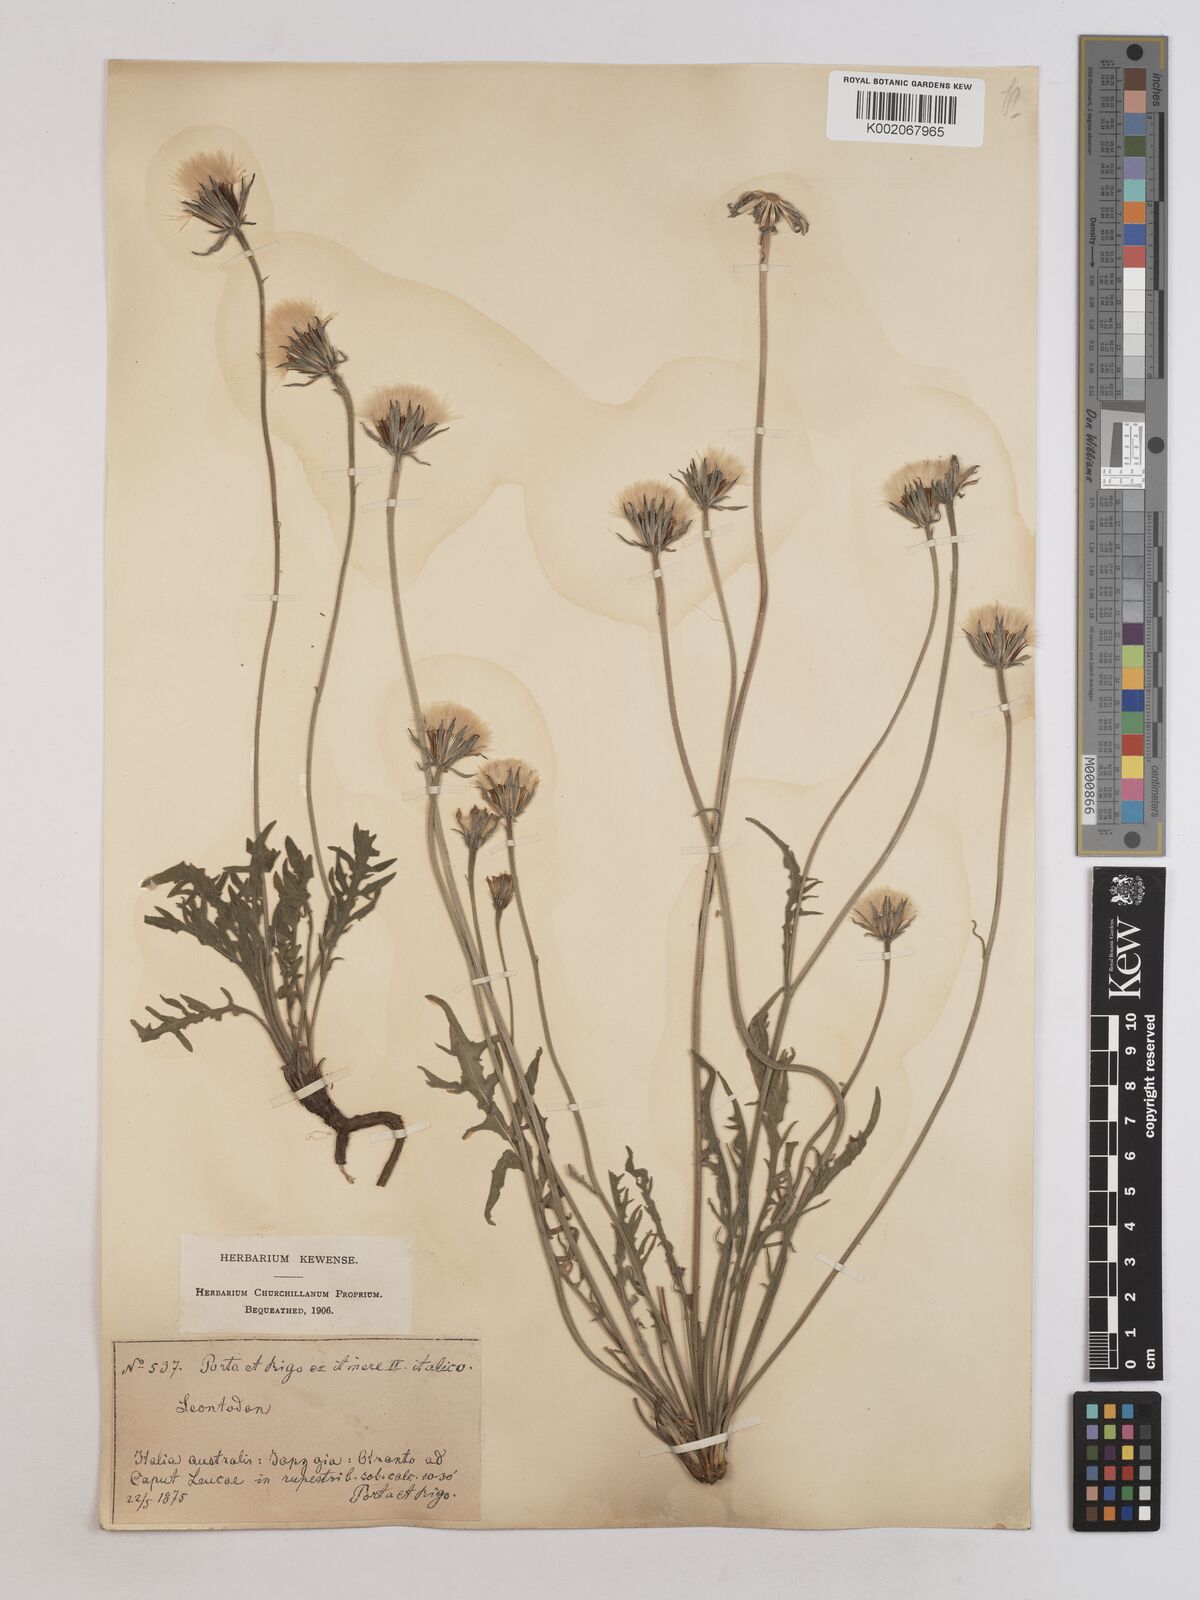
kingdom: Plantae
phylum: Tracheophyta
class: Magnoliopsida
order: Asterales
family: Asteraceae
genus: Leontodon
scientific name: Leontodon crispus
